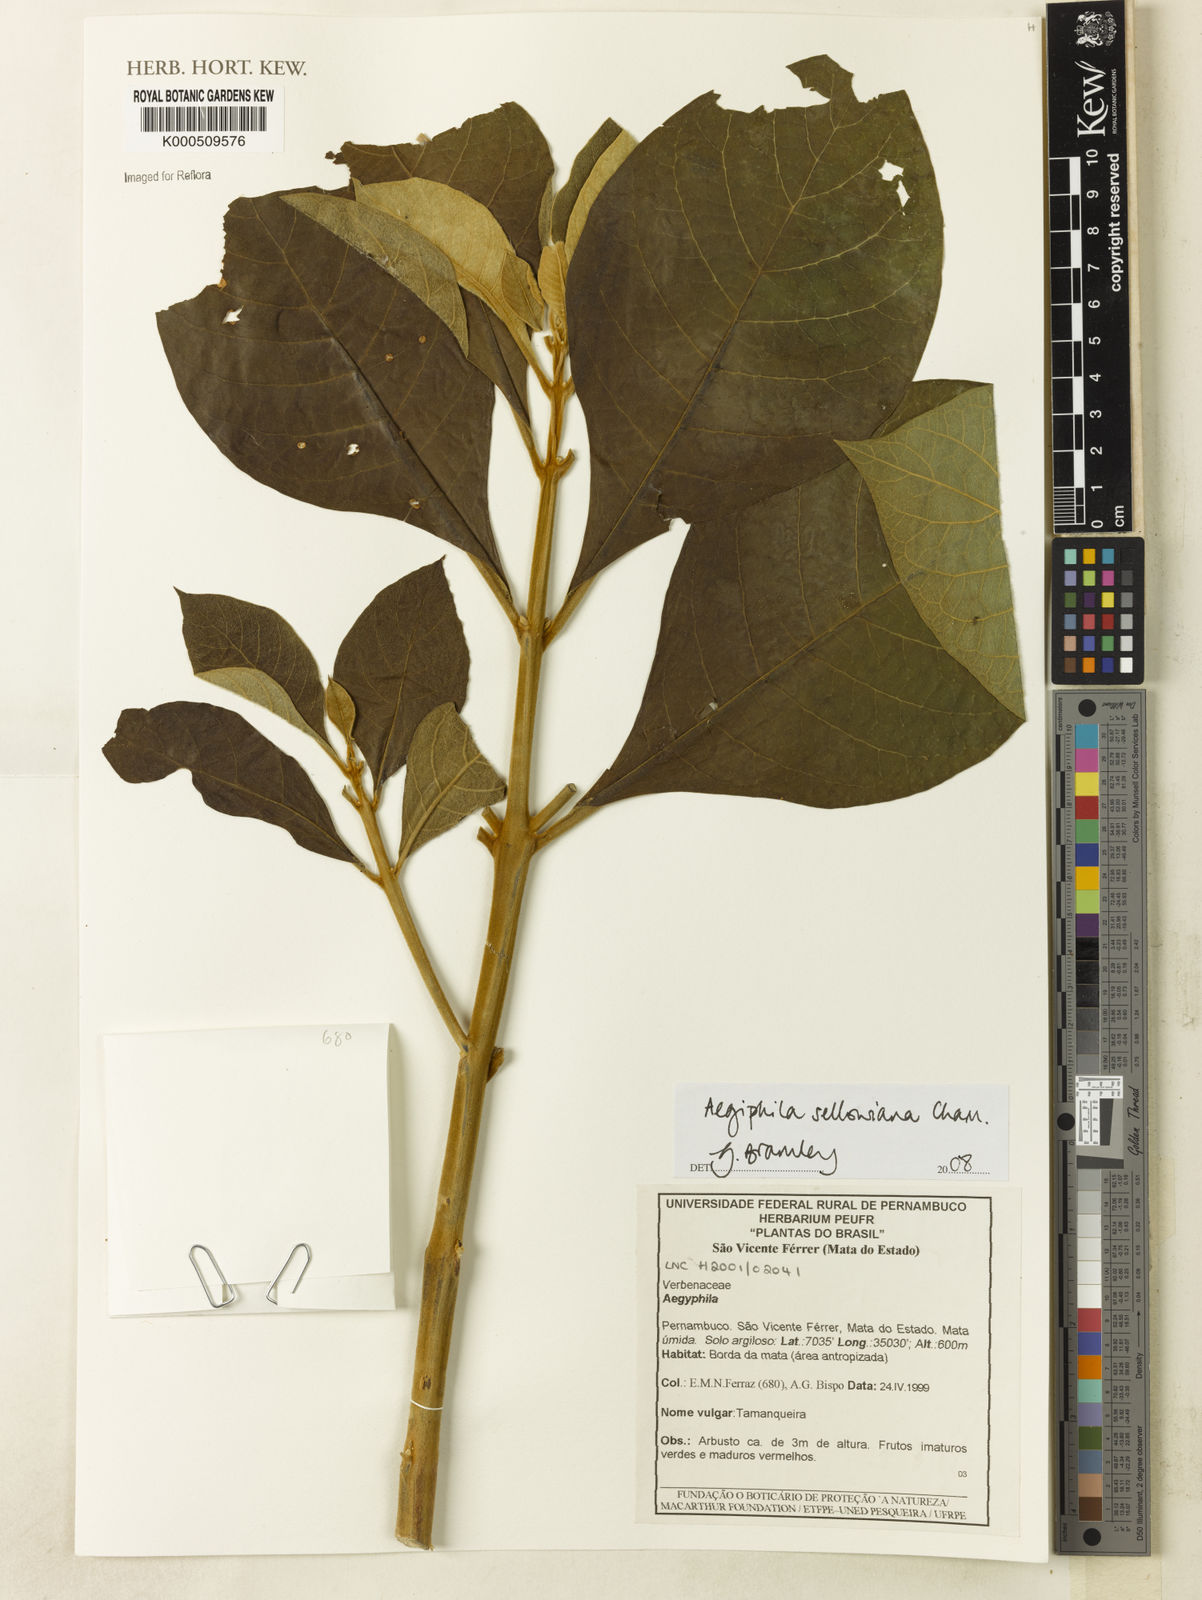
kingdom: Plantae
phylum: Tracheophyta
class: Magnoliopsida
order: Lamiales
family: Lamiaceae
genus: Aegiphila
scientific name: Aegiphila verticillata
